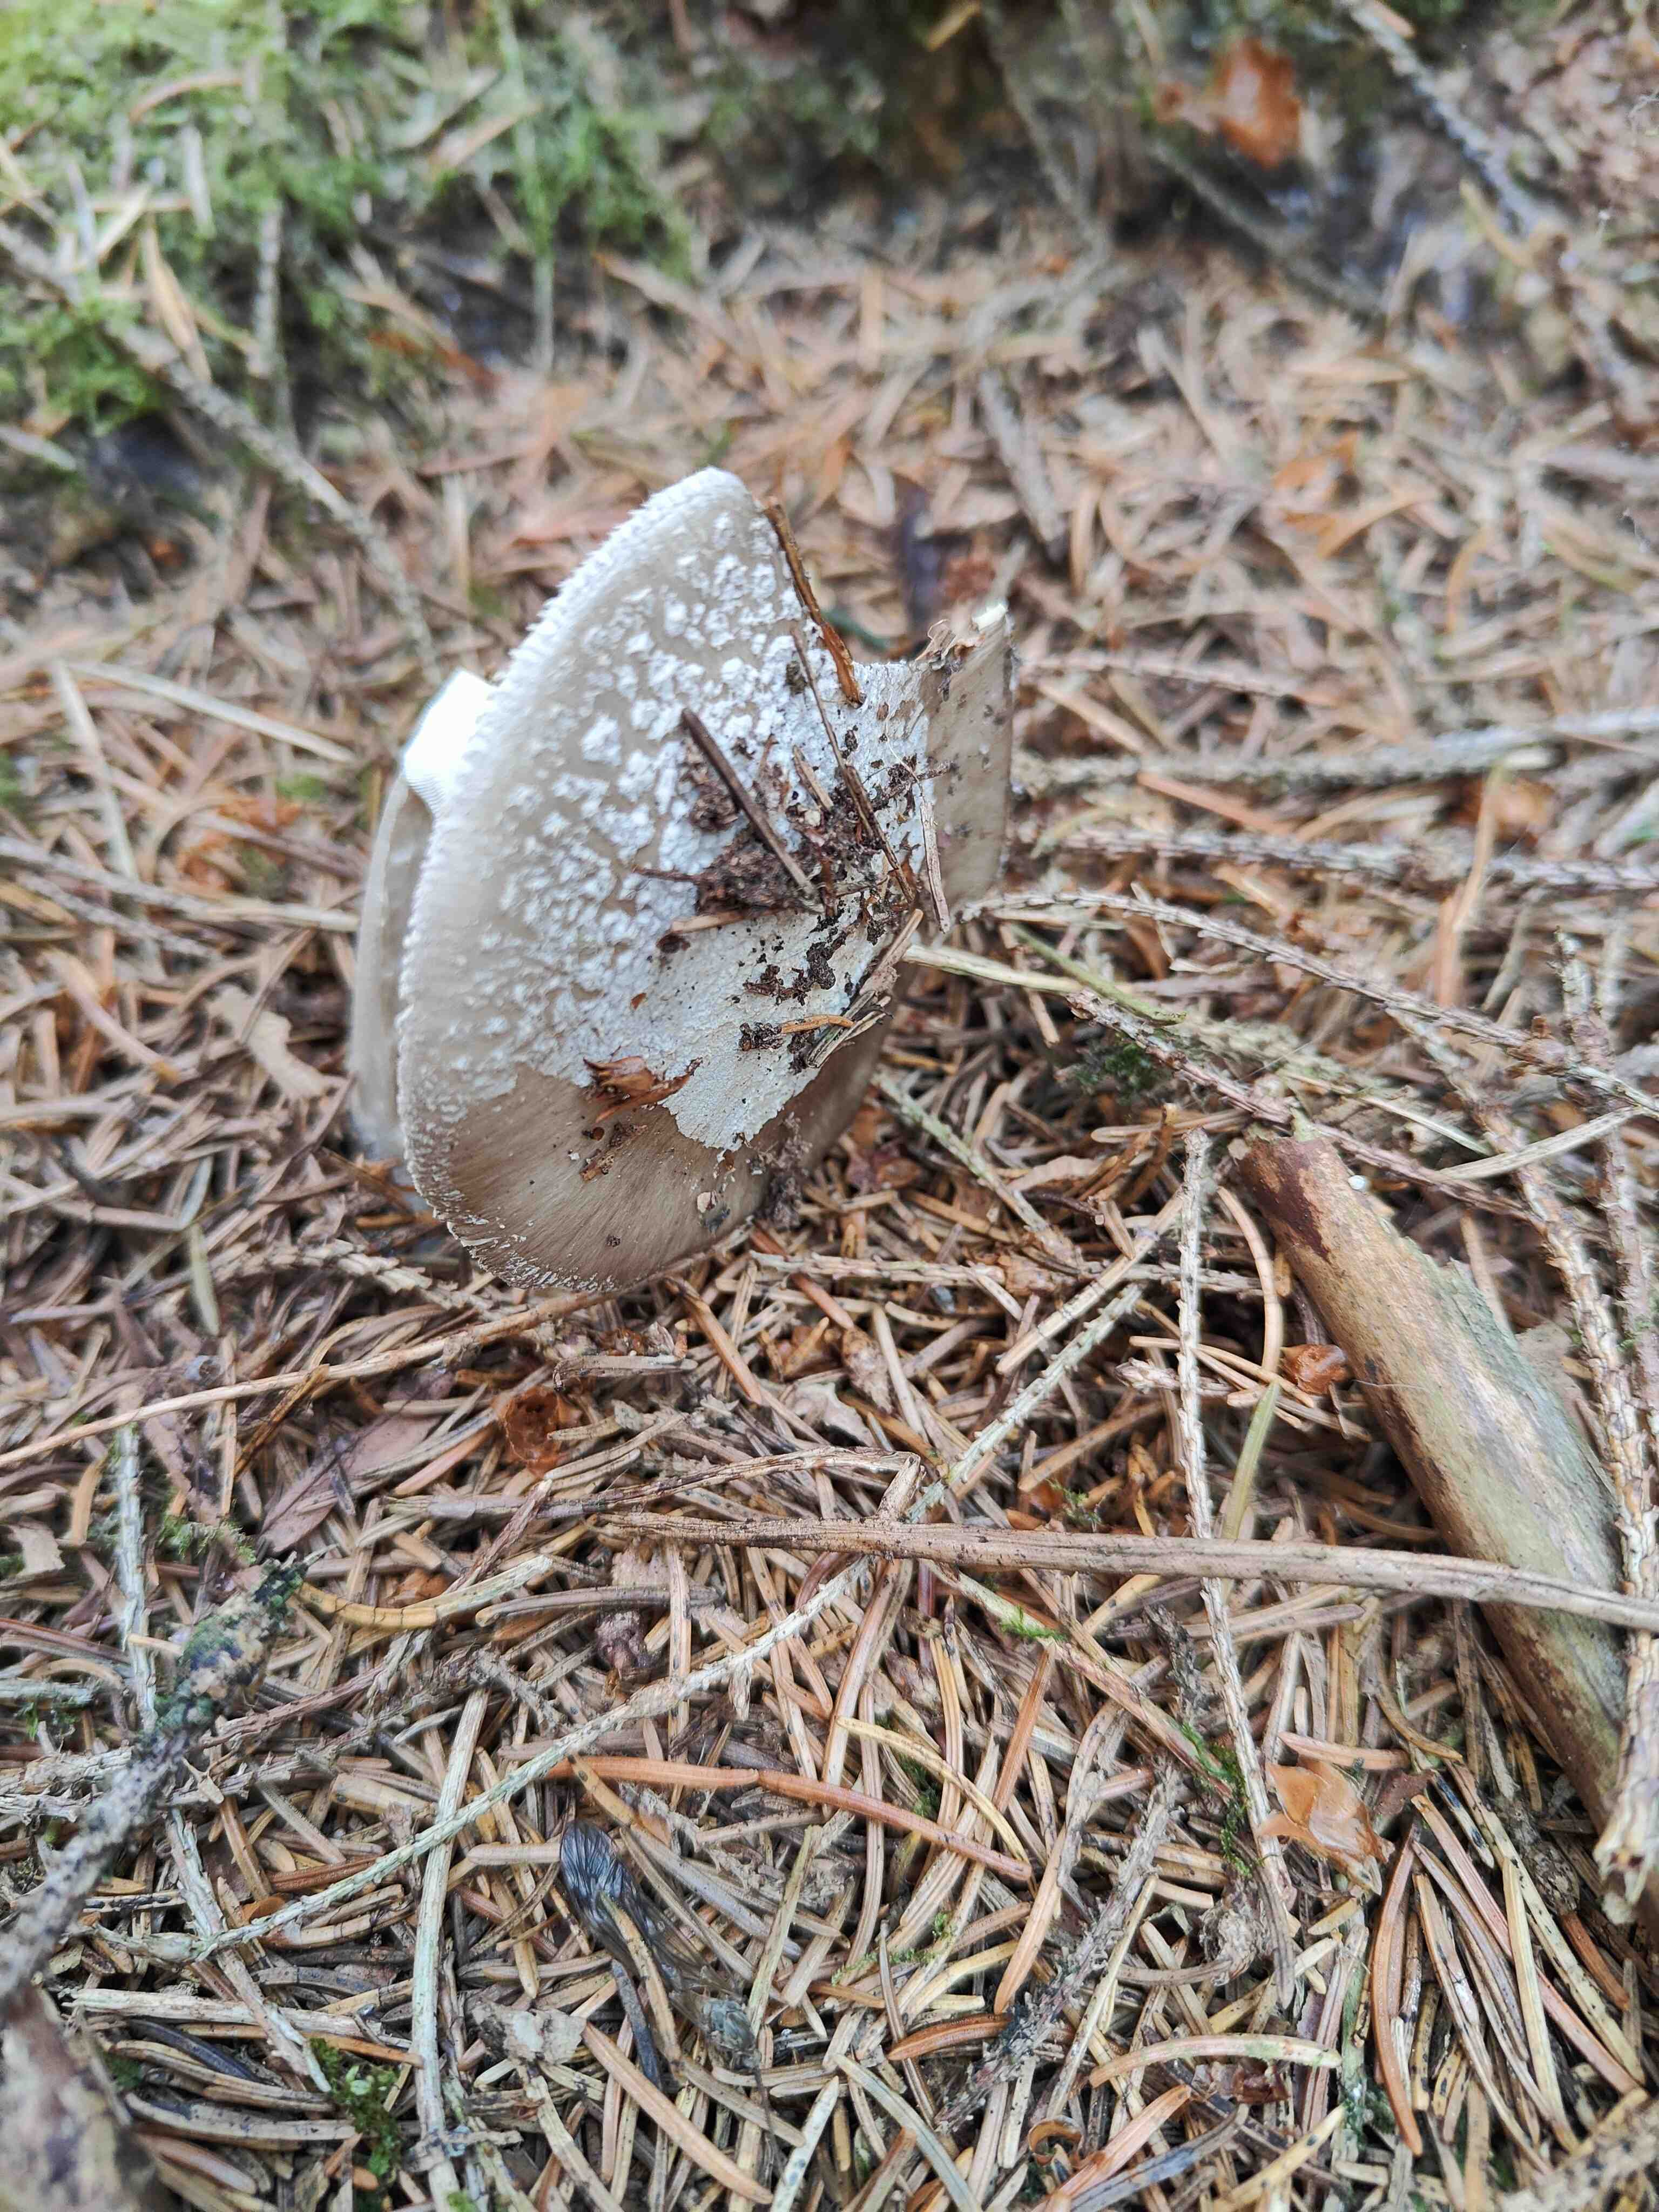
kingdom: Fungi
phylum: Basidiomycota
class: Agaricomycetes
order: Agaricales
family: Amanitaceae
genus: Amanita
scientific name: Amanita
